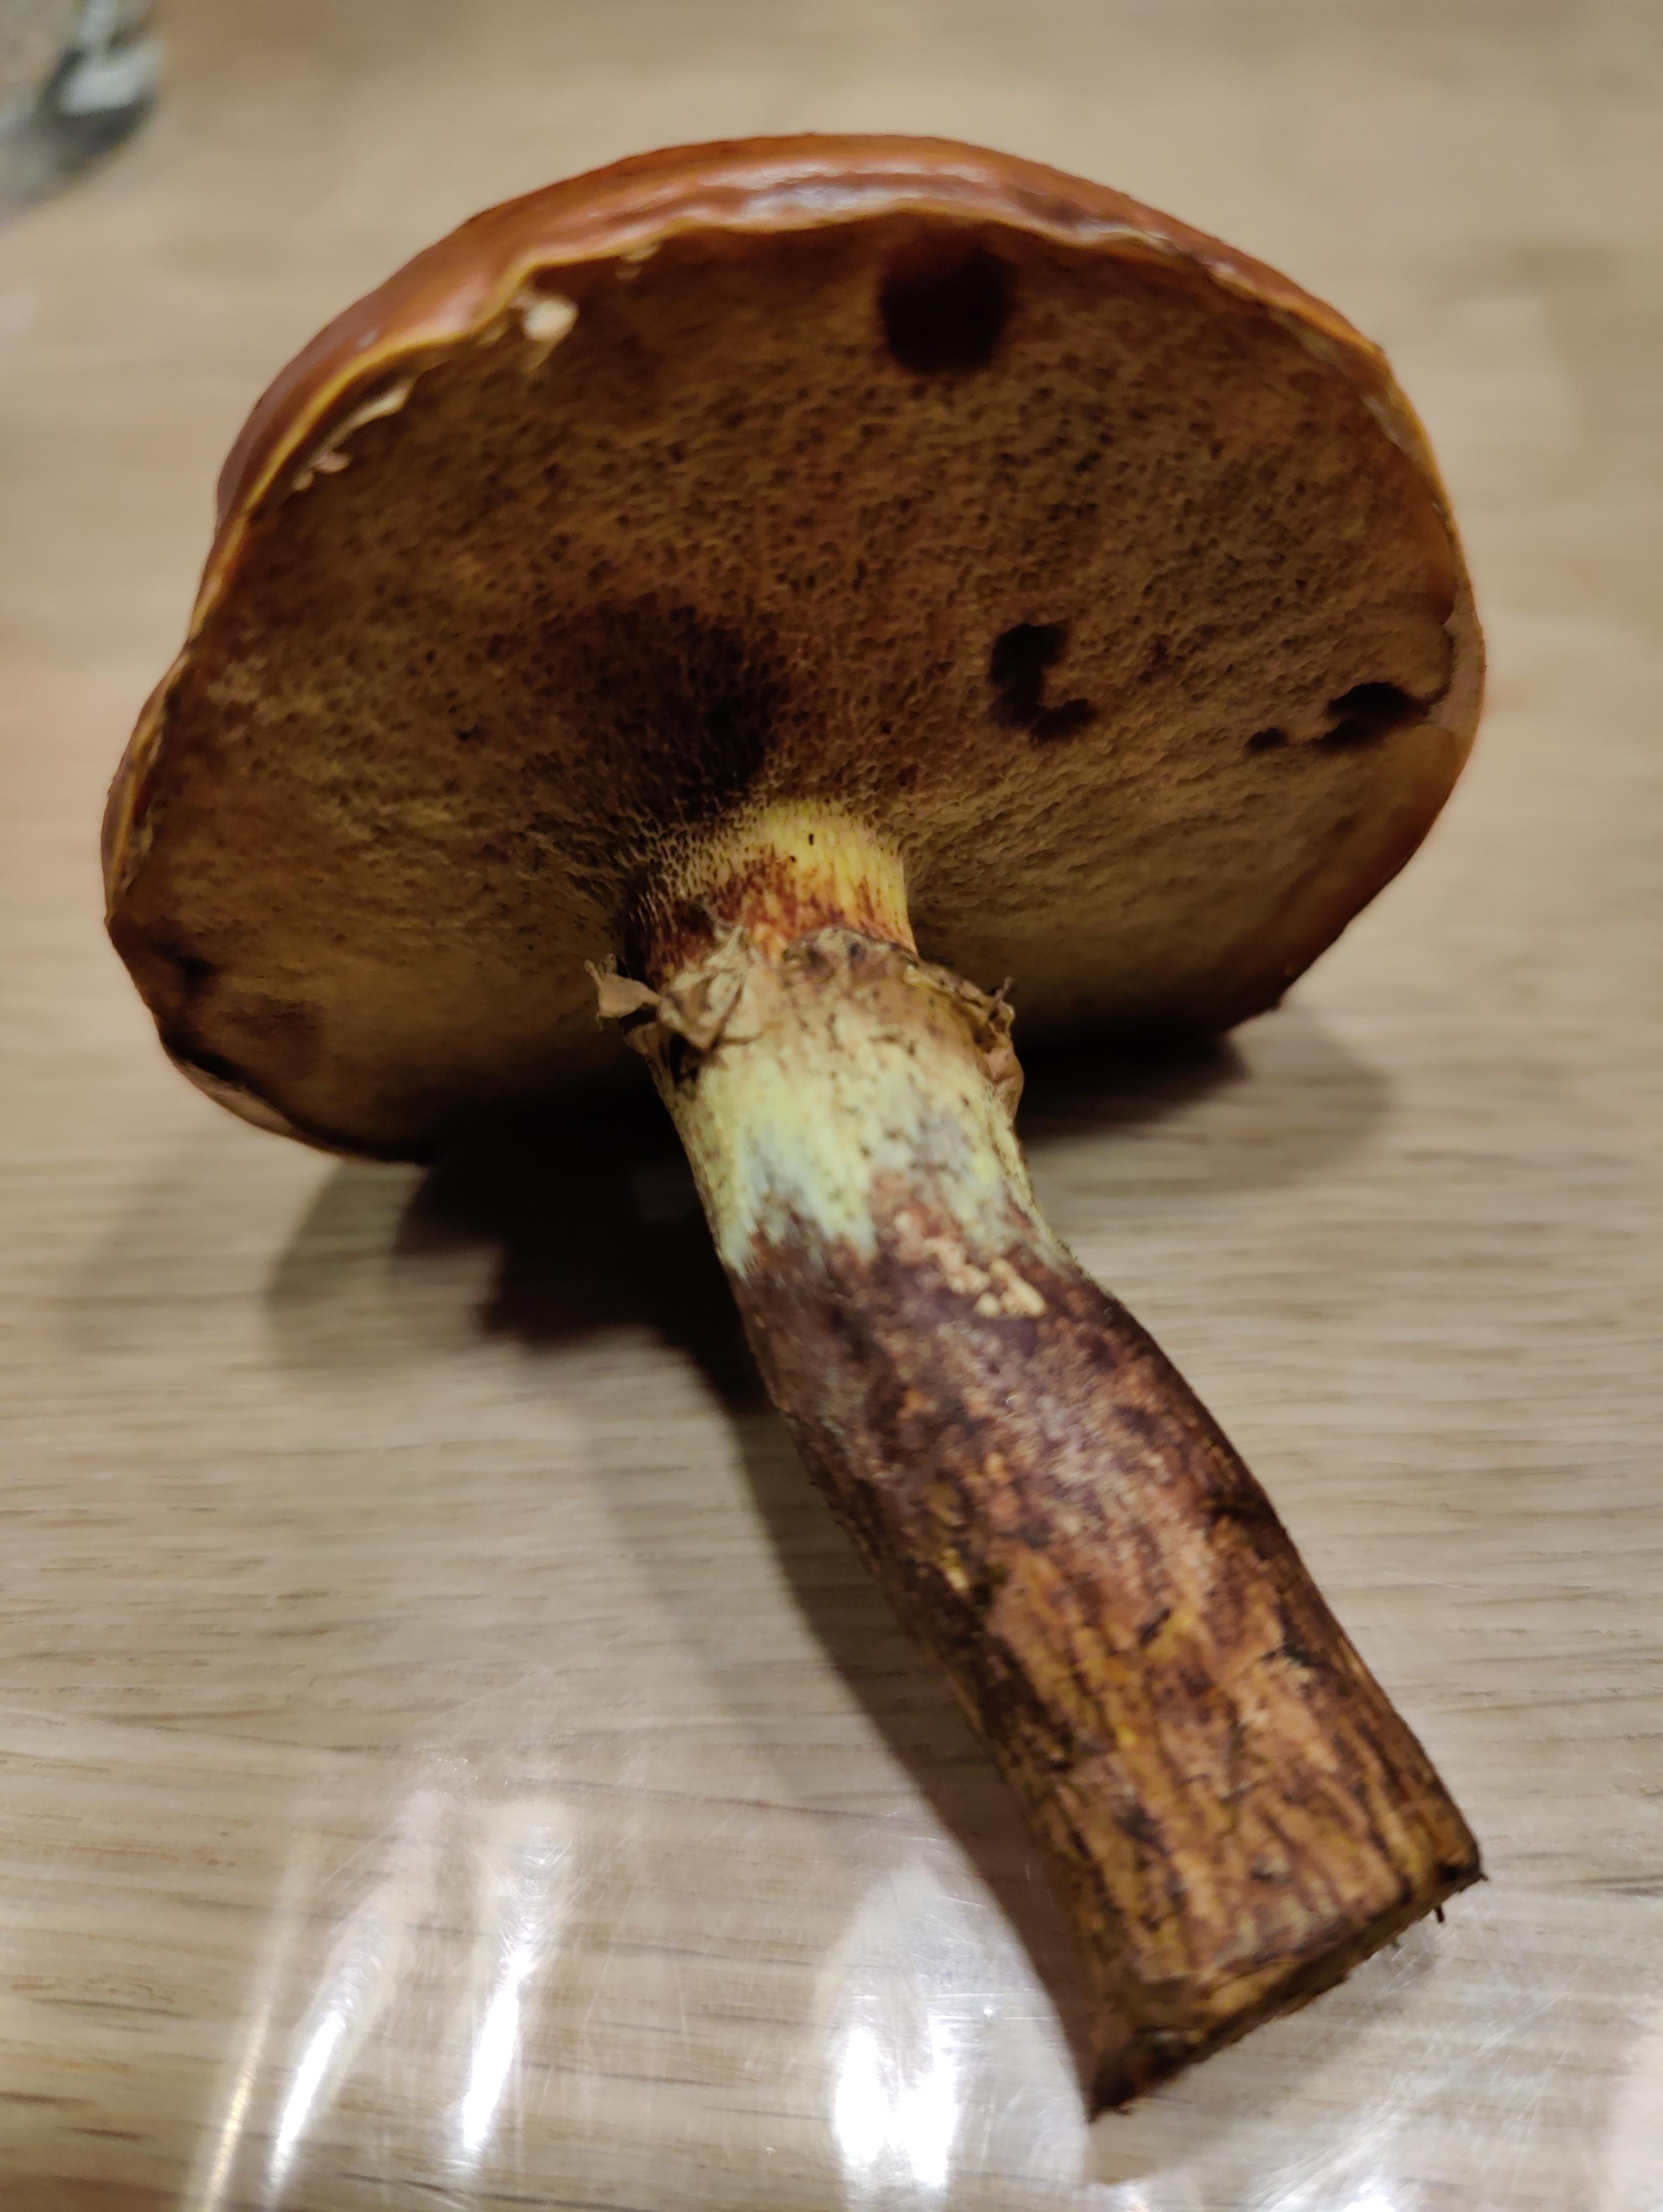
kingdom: Fungi
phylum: Basidiomycota
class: Agaricomycetes
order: Boletales
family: Suillaceae
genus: Suillus
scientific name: Suillus grevillei
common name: lærke-slimrørhat
